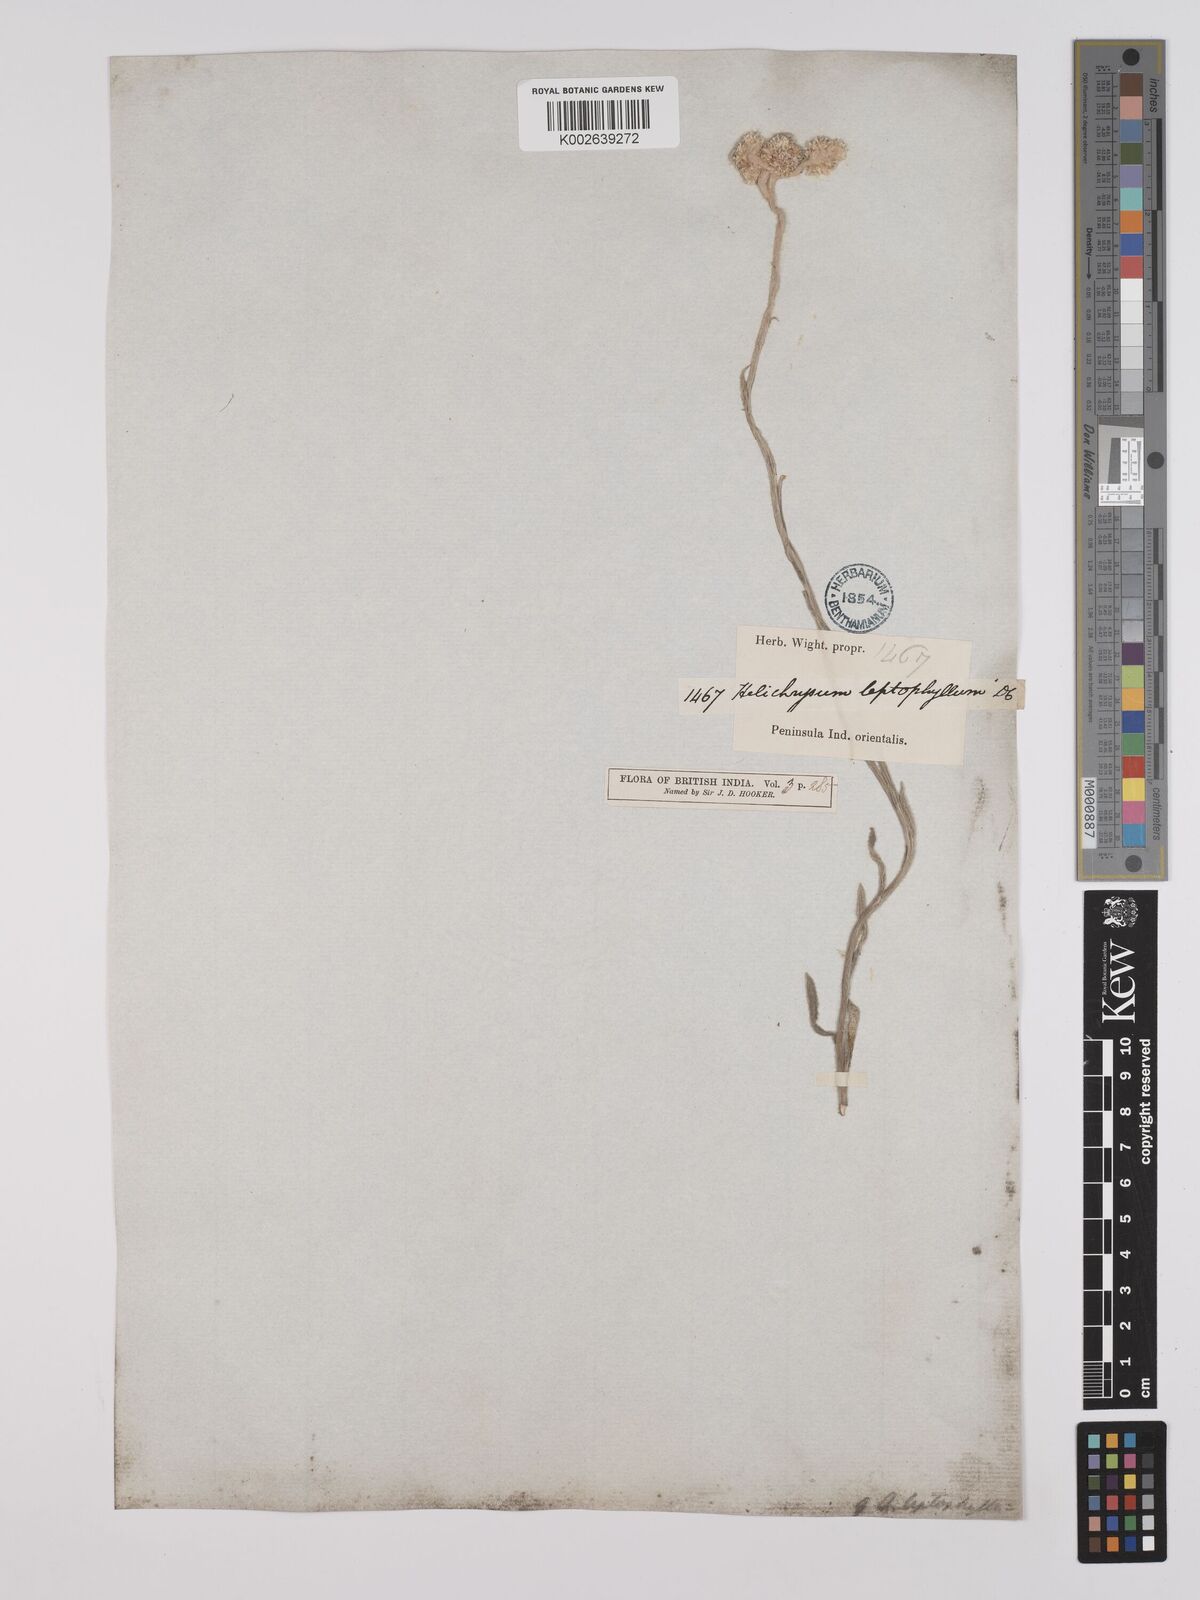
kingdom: Plantae
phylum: Tracheophyta
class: Magnoliopsida
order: Asterales
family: Asteraceae
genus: Anaphalis
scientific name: Anaphalis leptophylla
